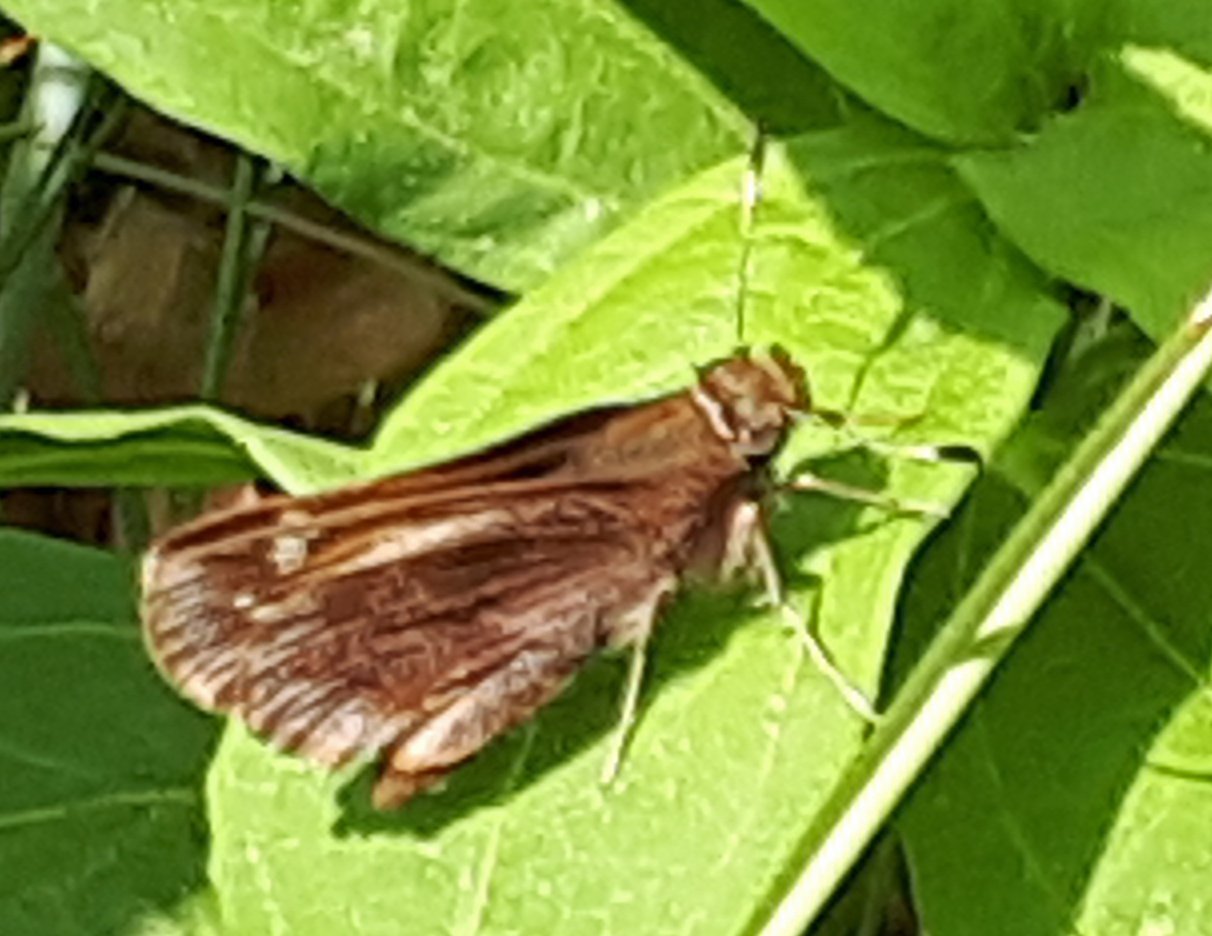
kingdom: Animalia
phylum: Arthropoda
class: Insecta
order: Lepidoptera
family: Hesperiidae
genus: Lon
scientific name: Lon hobomok
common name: Hobomok Skipper
